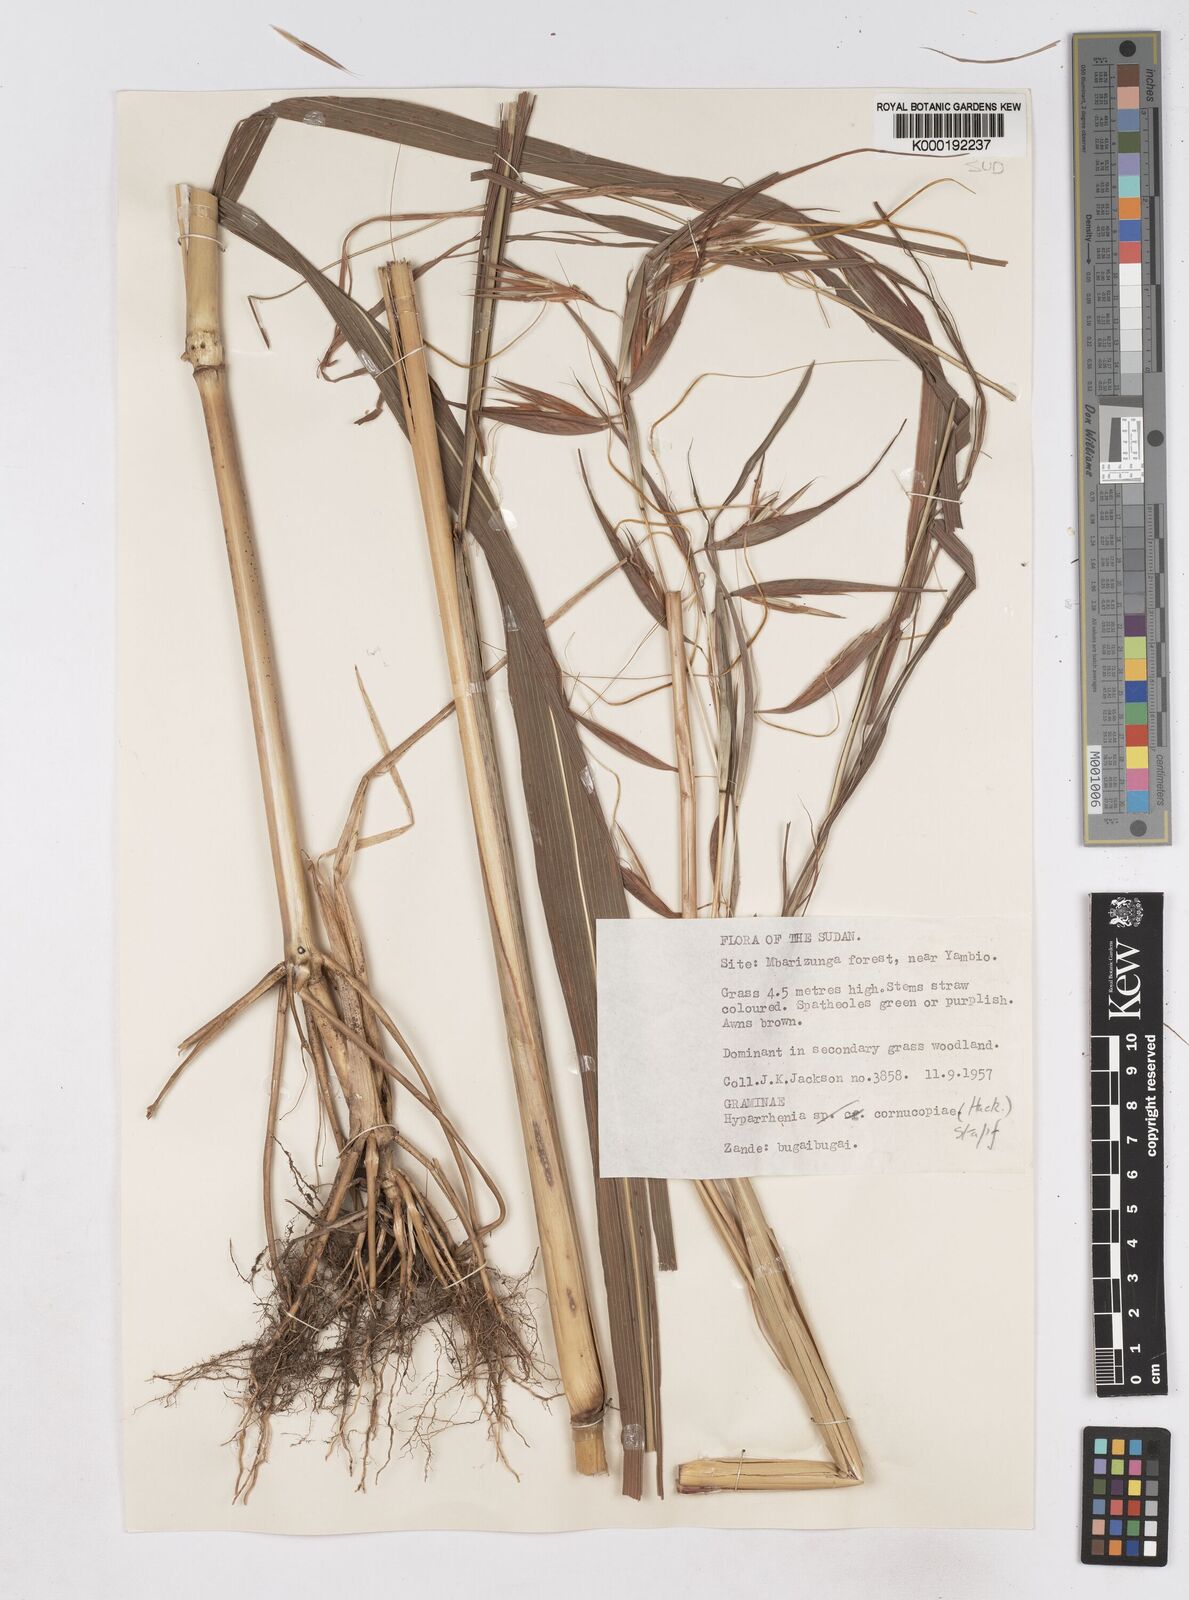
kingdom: Plantae
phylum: Tracheophyta
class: Liliopsida
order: Poales
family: Poaceae
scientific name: Poaceae
